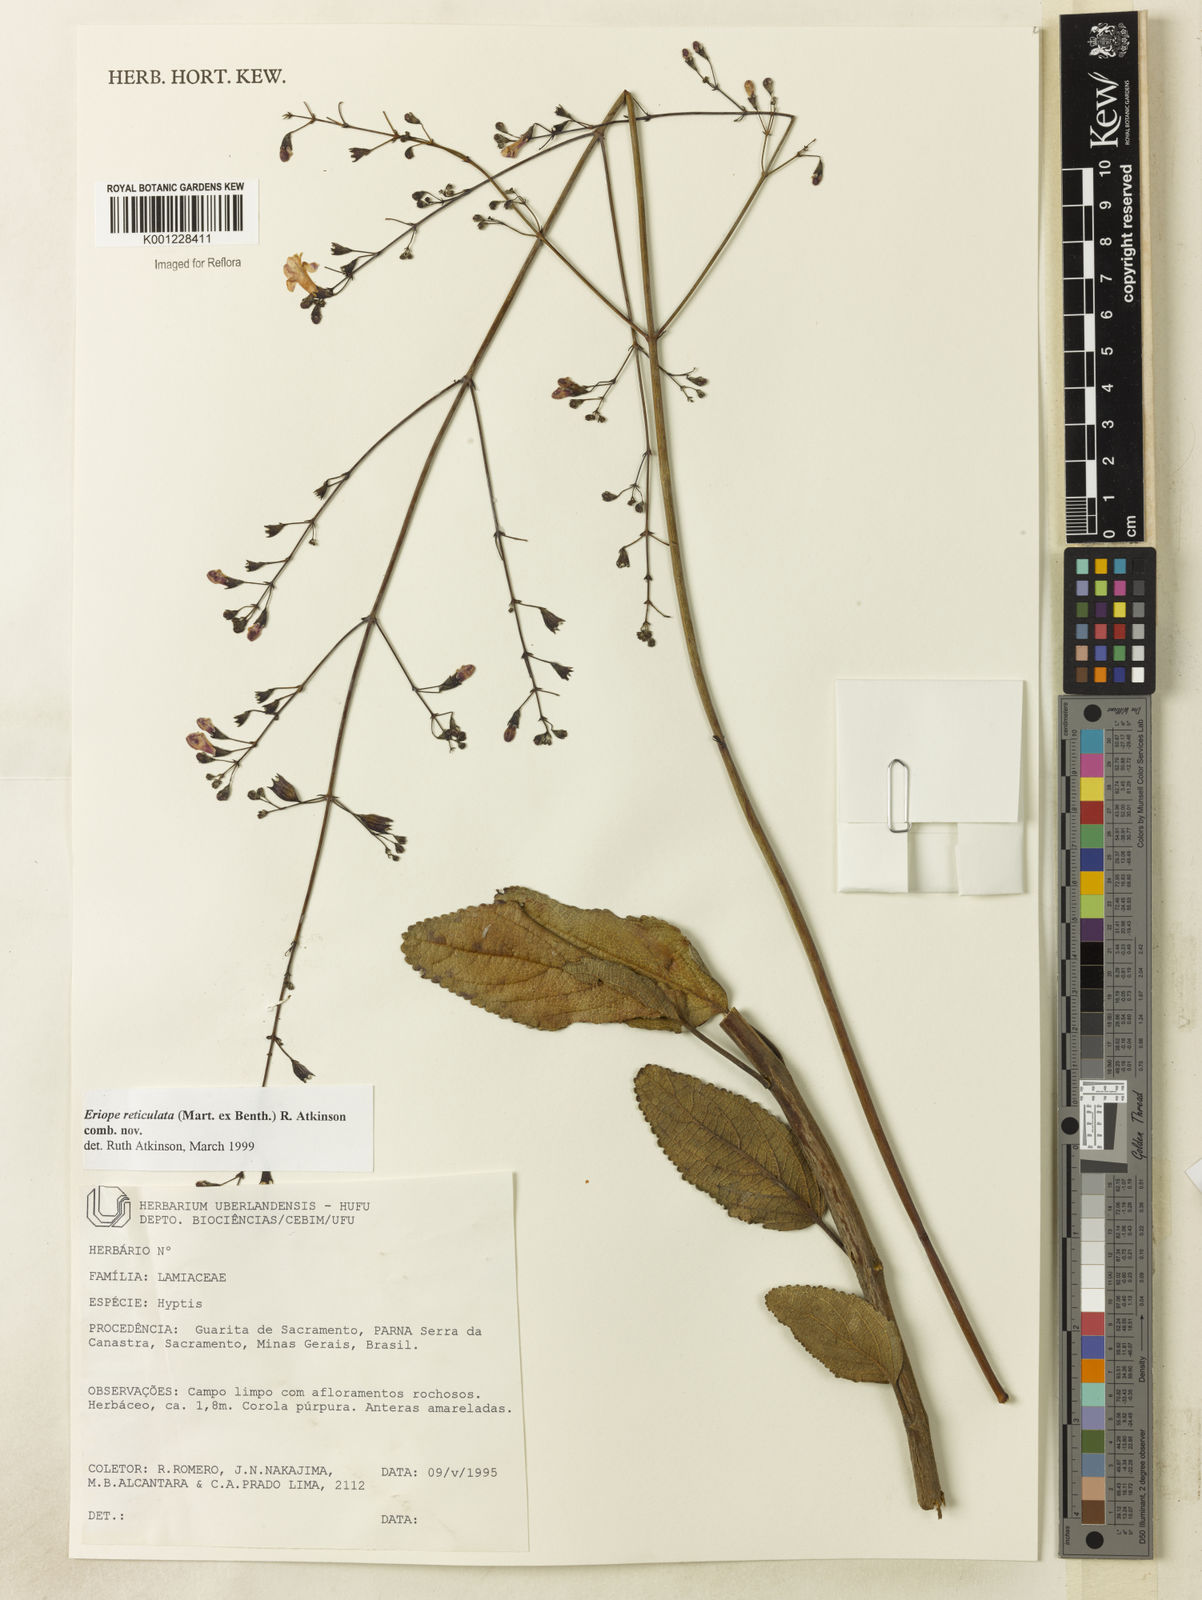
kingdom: Plantae
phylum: Tracheophyta
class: Magnoliopsida
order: Lamiales
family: Lamiaceae
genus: Hypenia
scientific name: Hypenia reticulata
